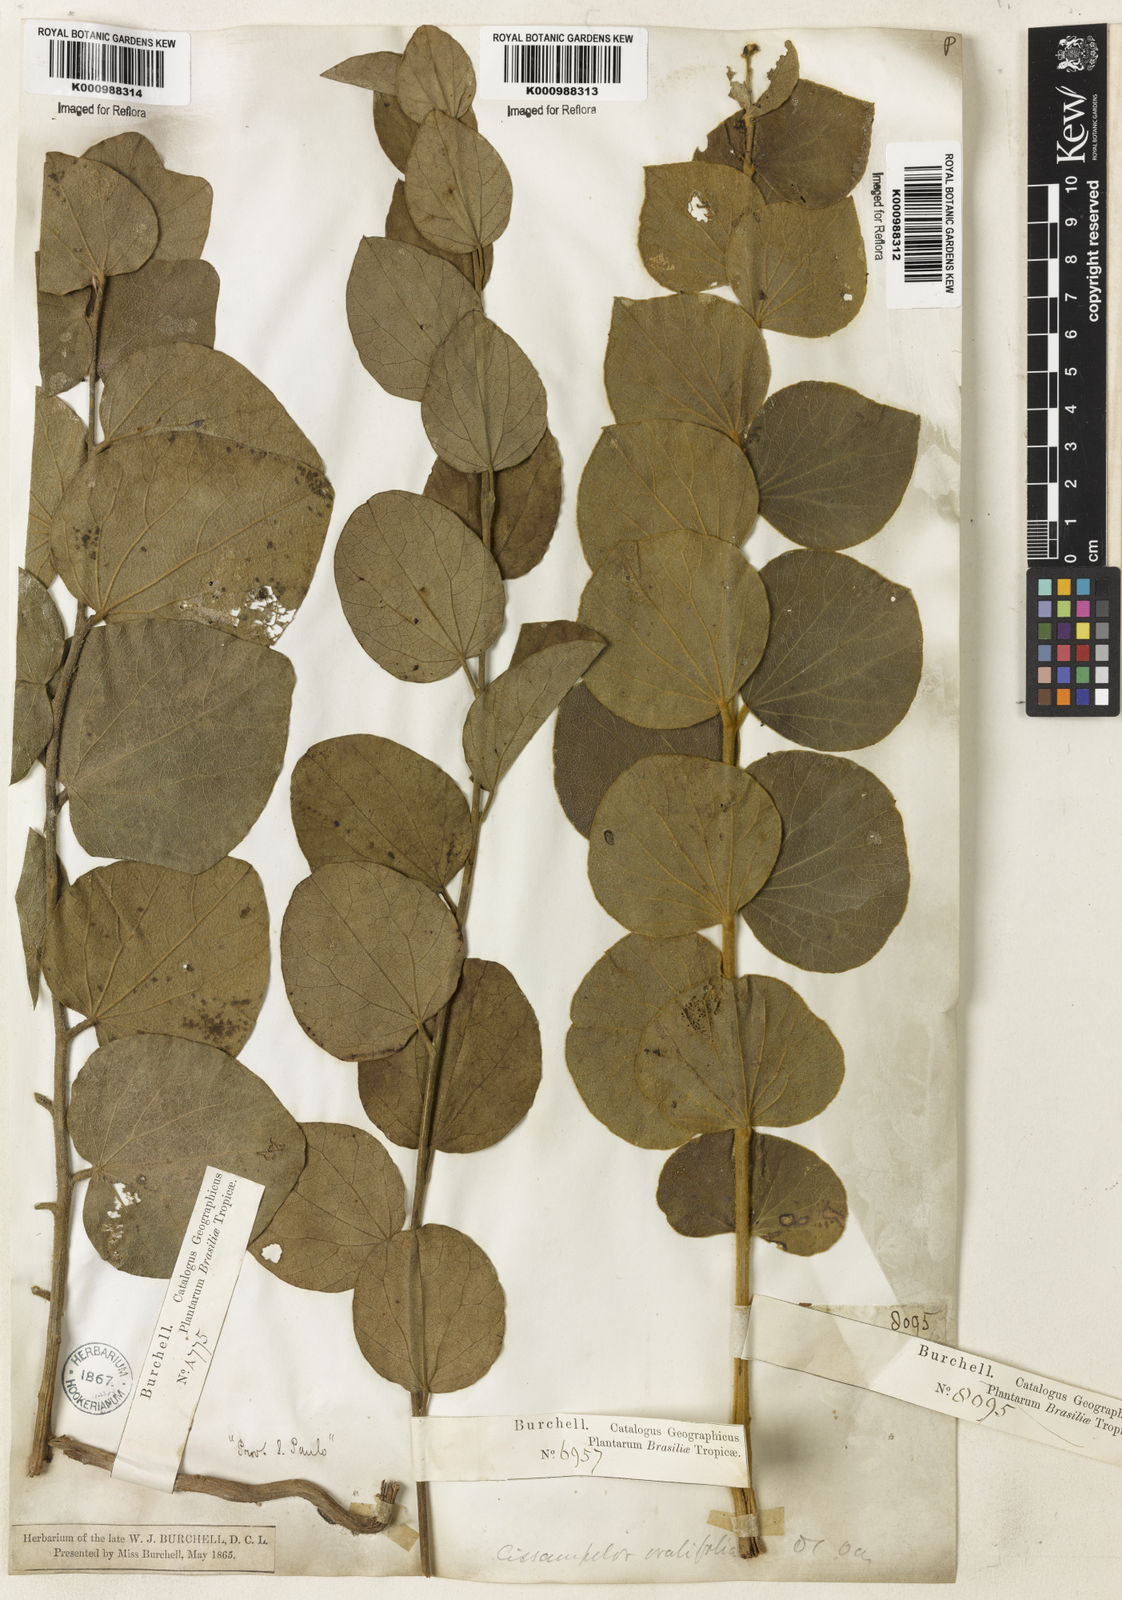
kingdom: Plantae
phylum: Tracheophyta
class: Magnoliopsida
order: Ranunculales
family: Menispermaceae
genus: Cissampelos
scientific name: Cissampelos ovalifolia
